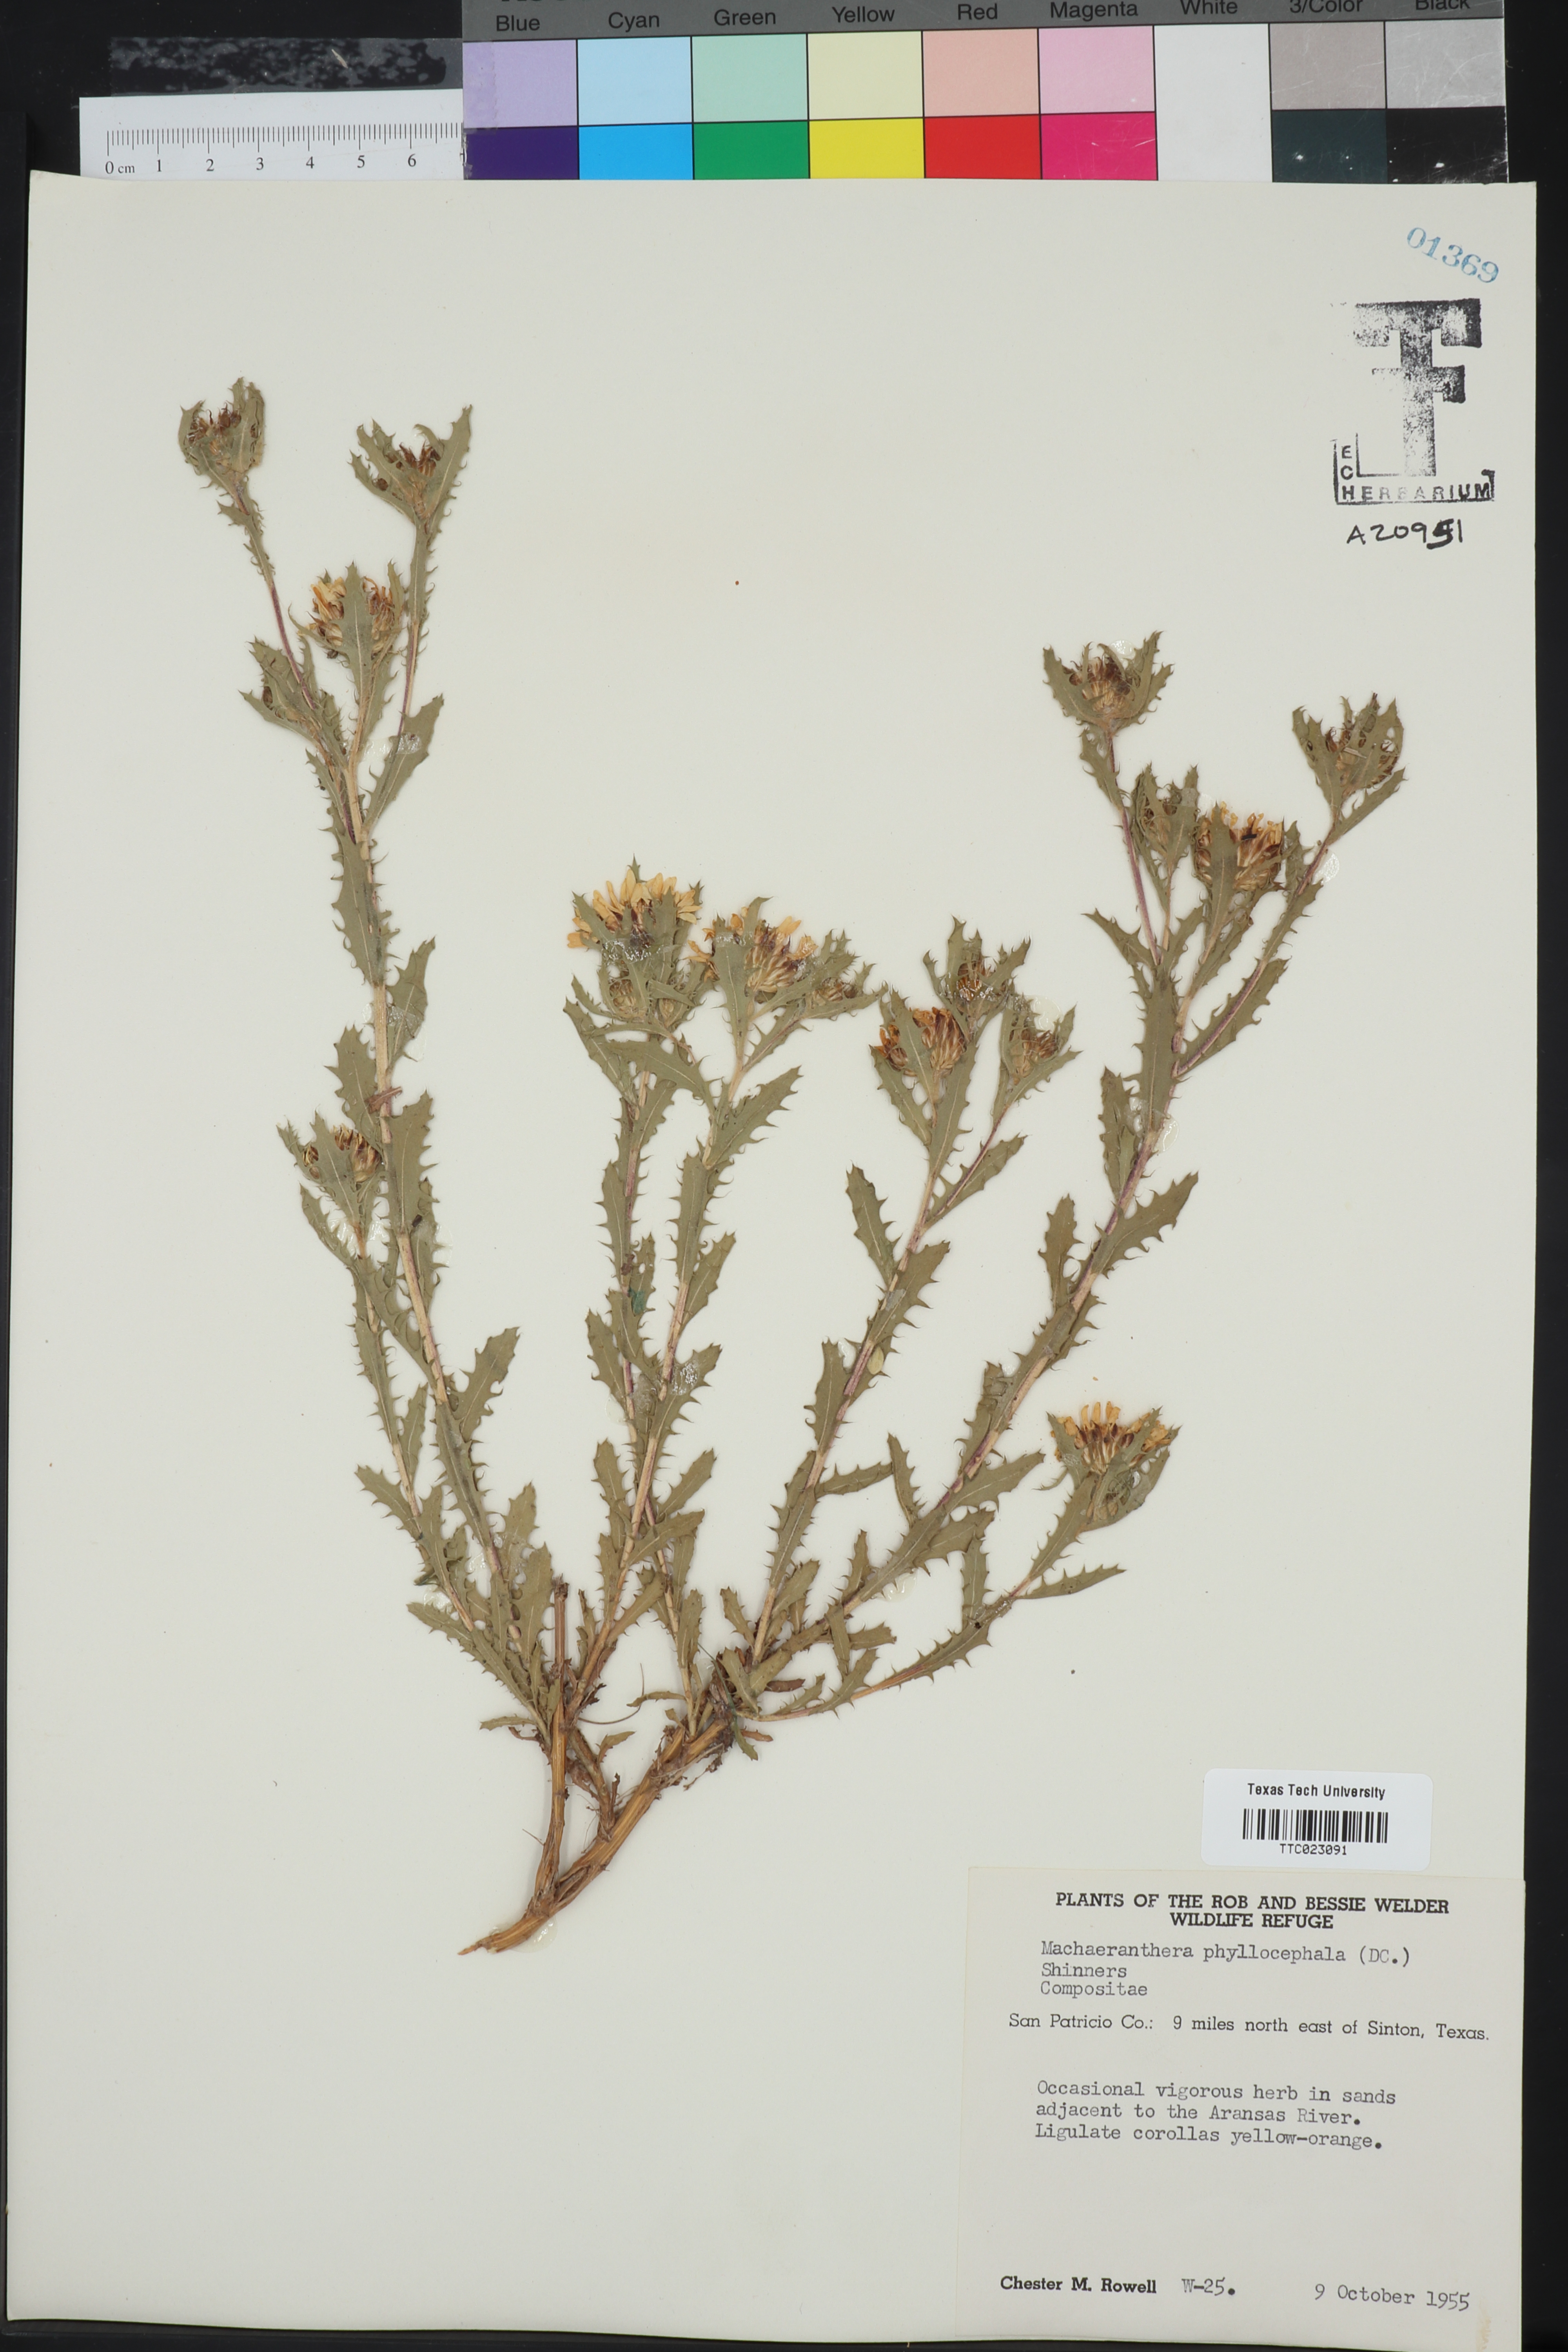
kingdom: Plantae
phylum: Tracheophyta
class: Magnoliopsida
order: Asterales
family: Asteraceae
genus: Rayjacksonia
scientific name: Rayjacksonia phyllocephala
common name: Gulf coast camphor daisy
